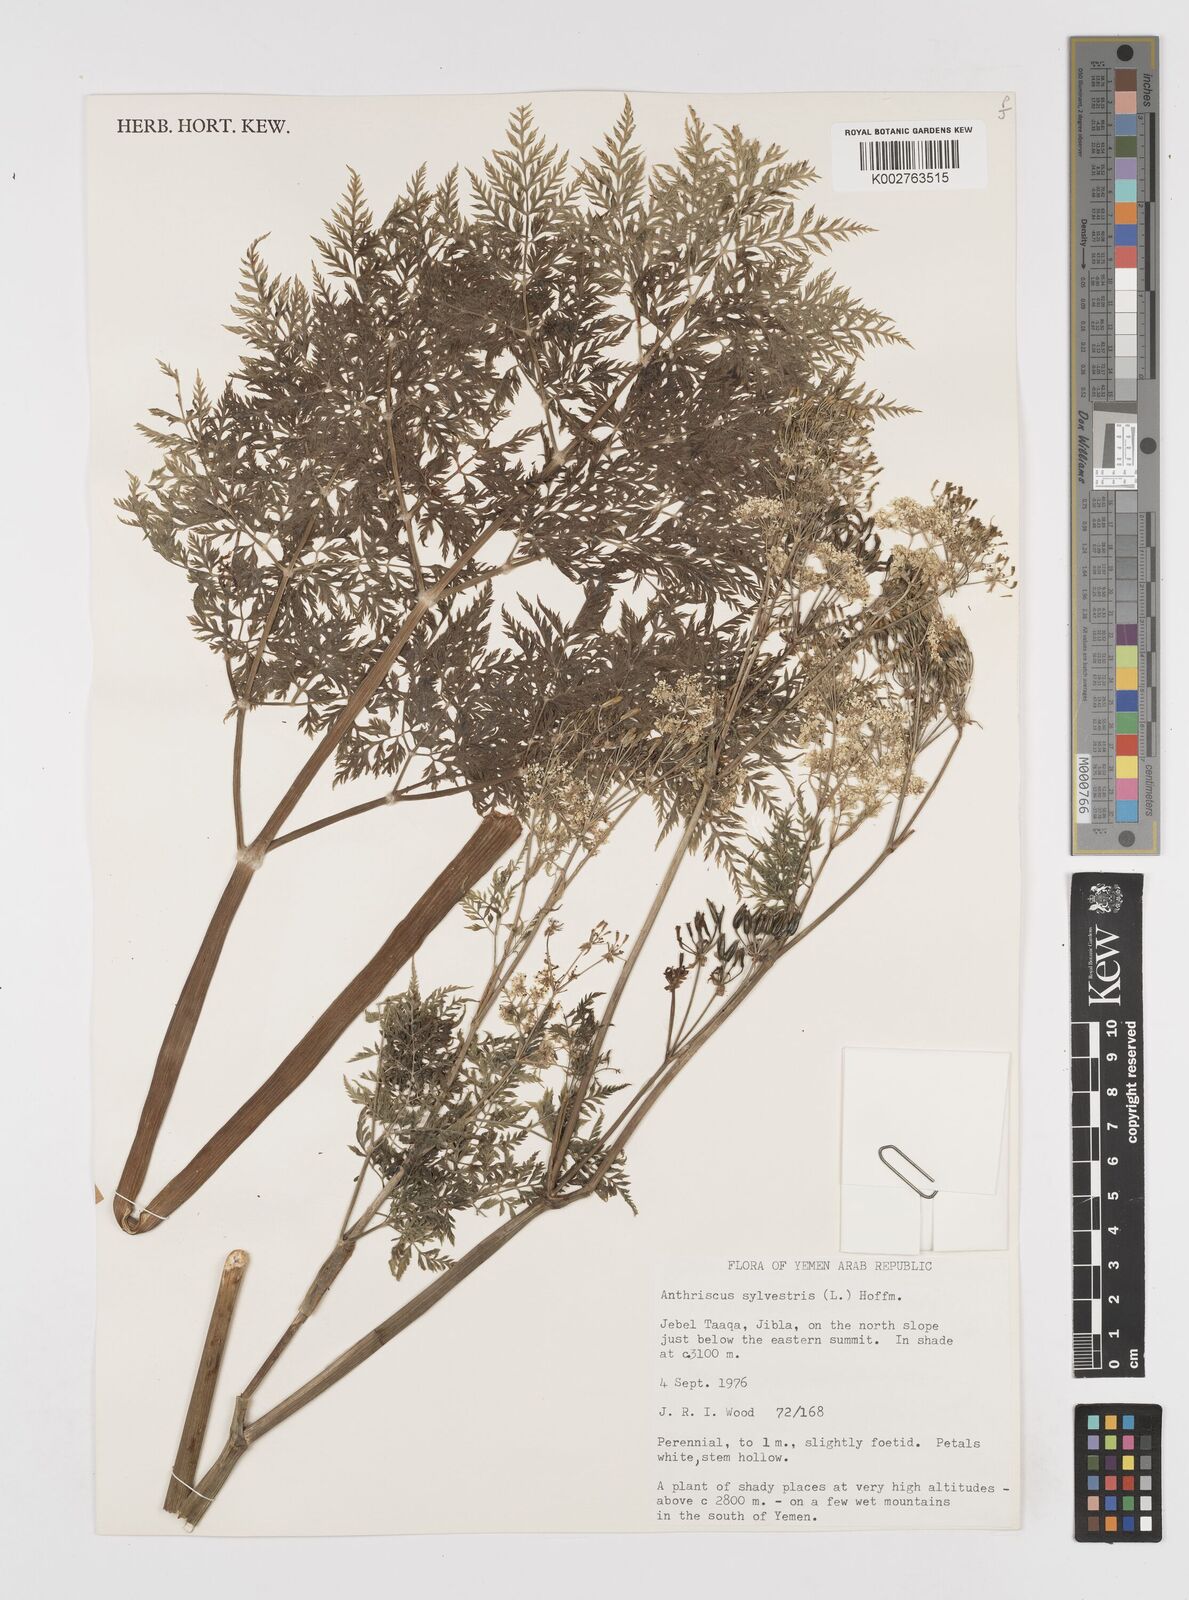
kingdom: Plantae
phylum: Tracheophyta
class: Magnoliopsida
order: Apiales
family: Apiaceae
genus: Anthriscus
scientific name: Anthriscus sylvestris
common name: Cow parsley
